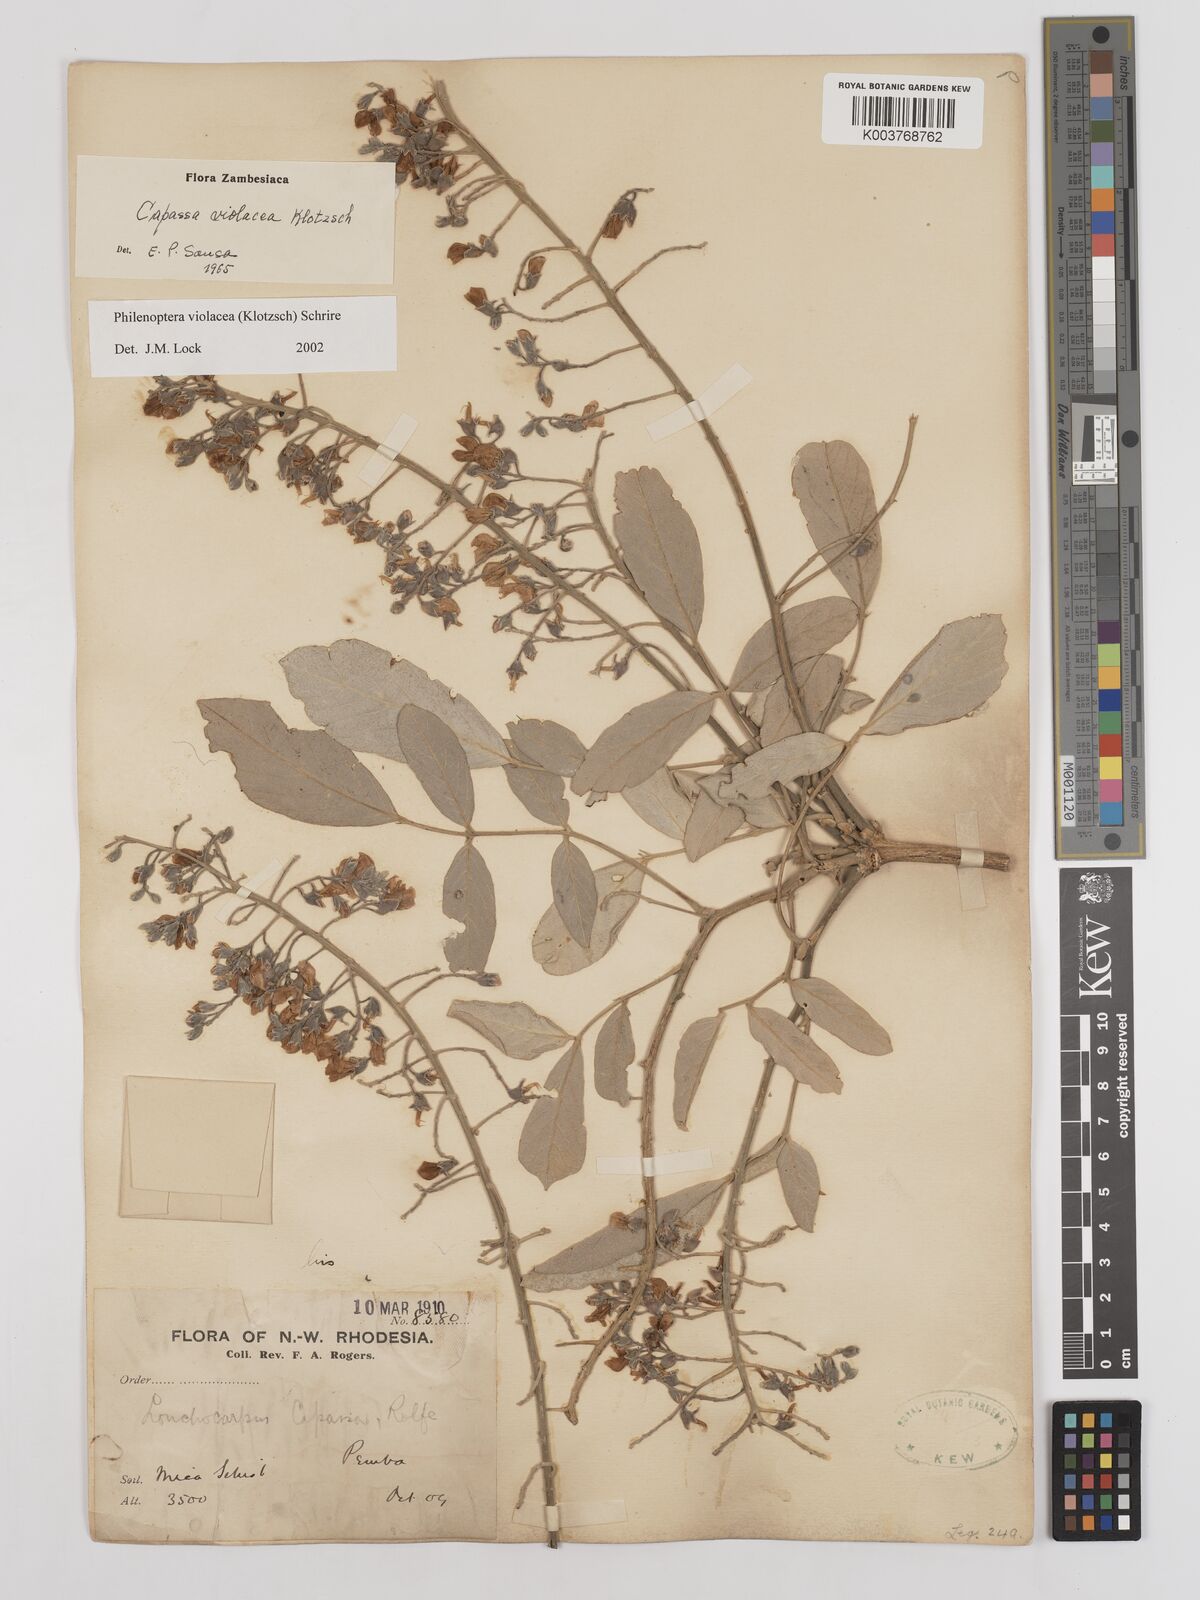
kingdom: Plantae
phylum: Tracheophyta
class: Magnoliopsida
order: Fabales
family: Fabaceae
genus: Philenoptera
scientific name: Philenoptera violacea
